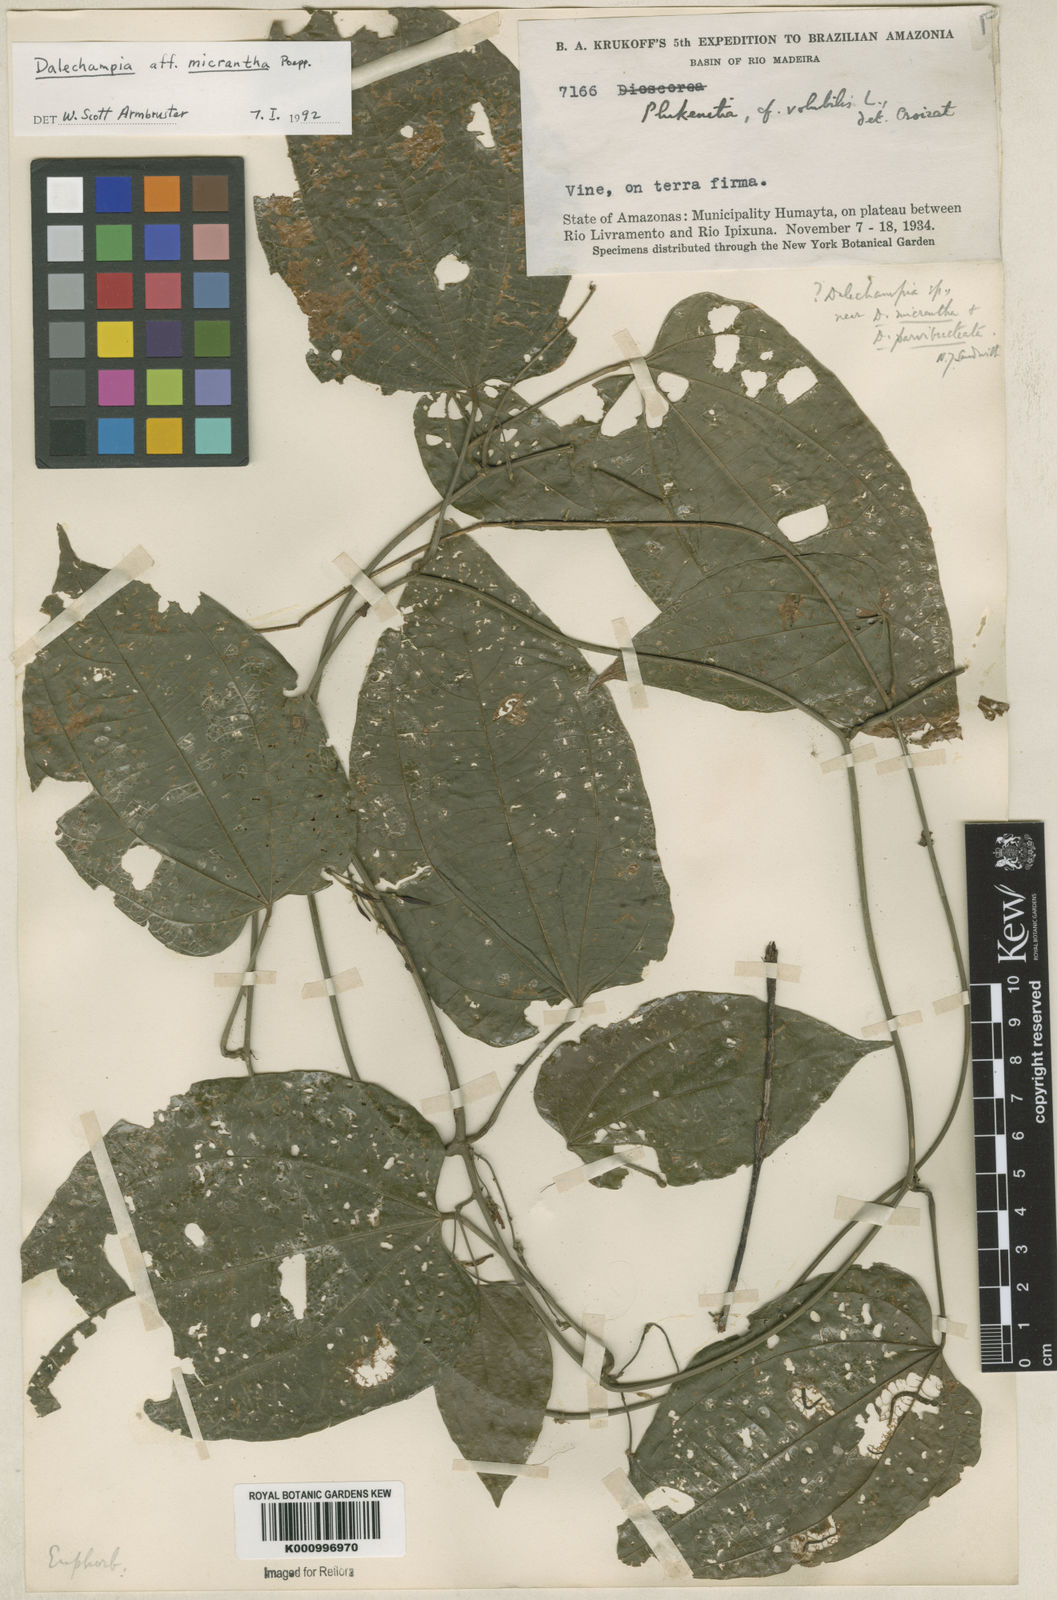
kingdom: Plantae
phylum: Tracheophyta
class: Magnoliopsida
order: Malpighiales
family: Euphorbiaceae
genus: Dalechampia
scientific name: Dalechampia micrantha
